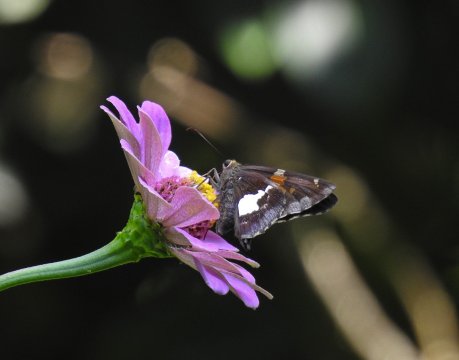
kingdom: Animalia
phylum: Arthropoda
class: Insecta
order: Lepidoptera
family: Hesperiidae
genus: Epargyreus
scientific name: Epargyreus clarus
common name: Silver-spotted Skipper
